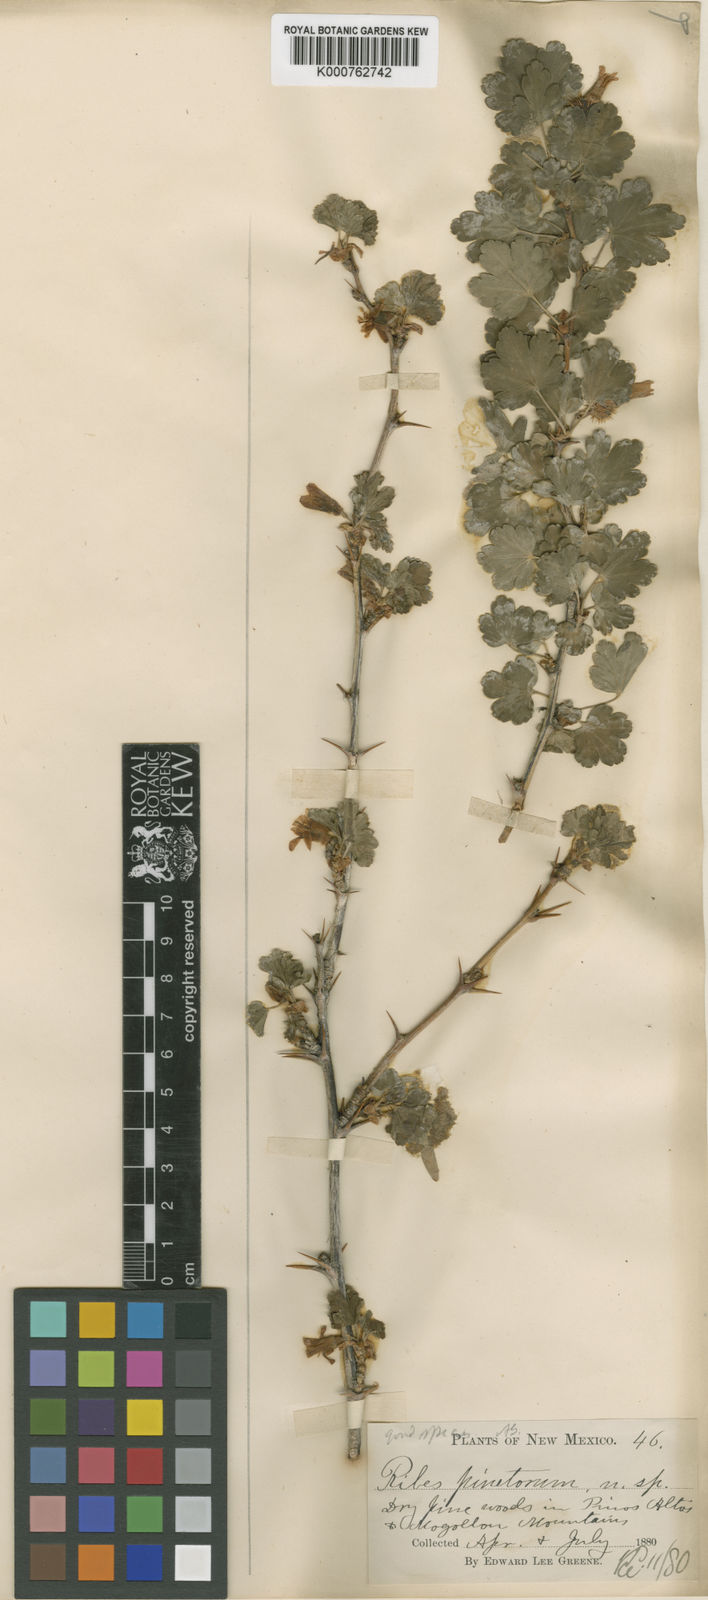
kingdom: Plantae
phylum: Tracheophyta
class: Magnoliopsida
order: Saxifragales
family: Grossulariaceae
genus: Ribes
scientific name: Ribes pinetorum
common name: Orange gooseberry
